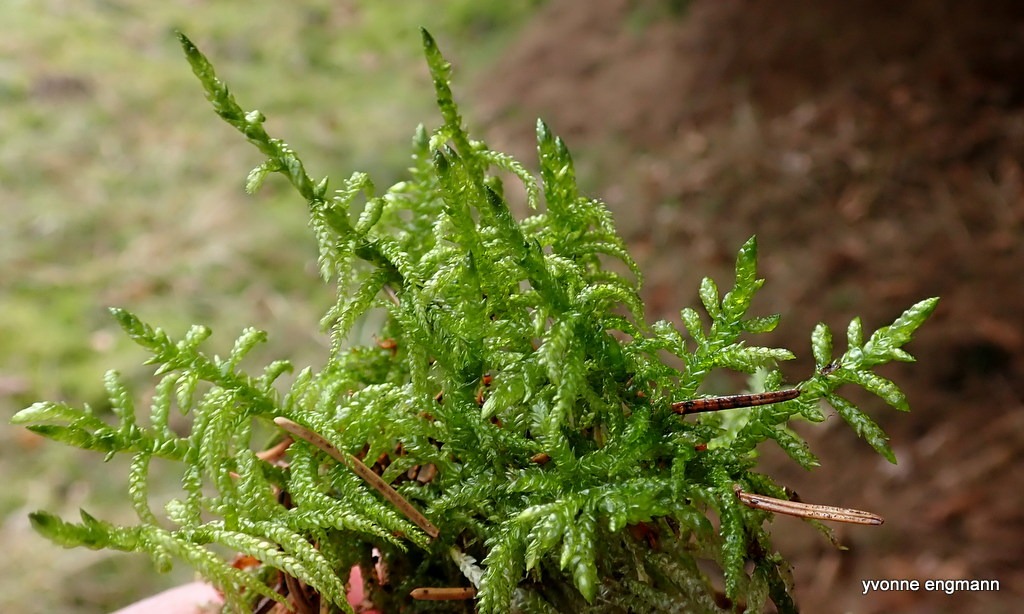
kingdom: Plantae
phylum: Bryophyta
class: Bryopsida
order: Hypnales
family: Brachytheciaceae
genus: Pseudoscleropodium
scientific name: Pseudoscleropodium purum
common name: Hulbladet fedtmos
